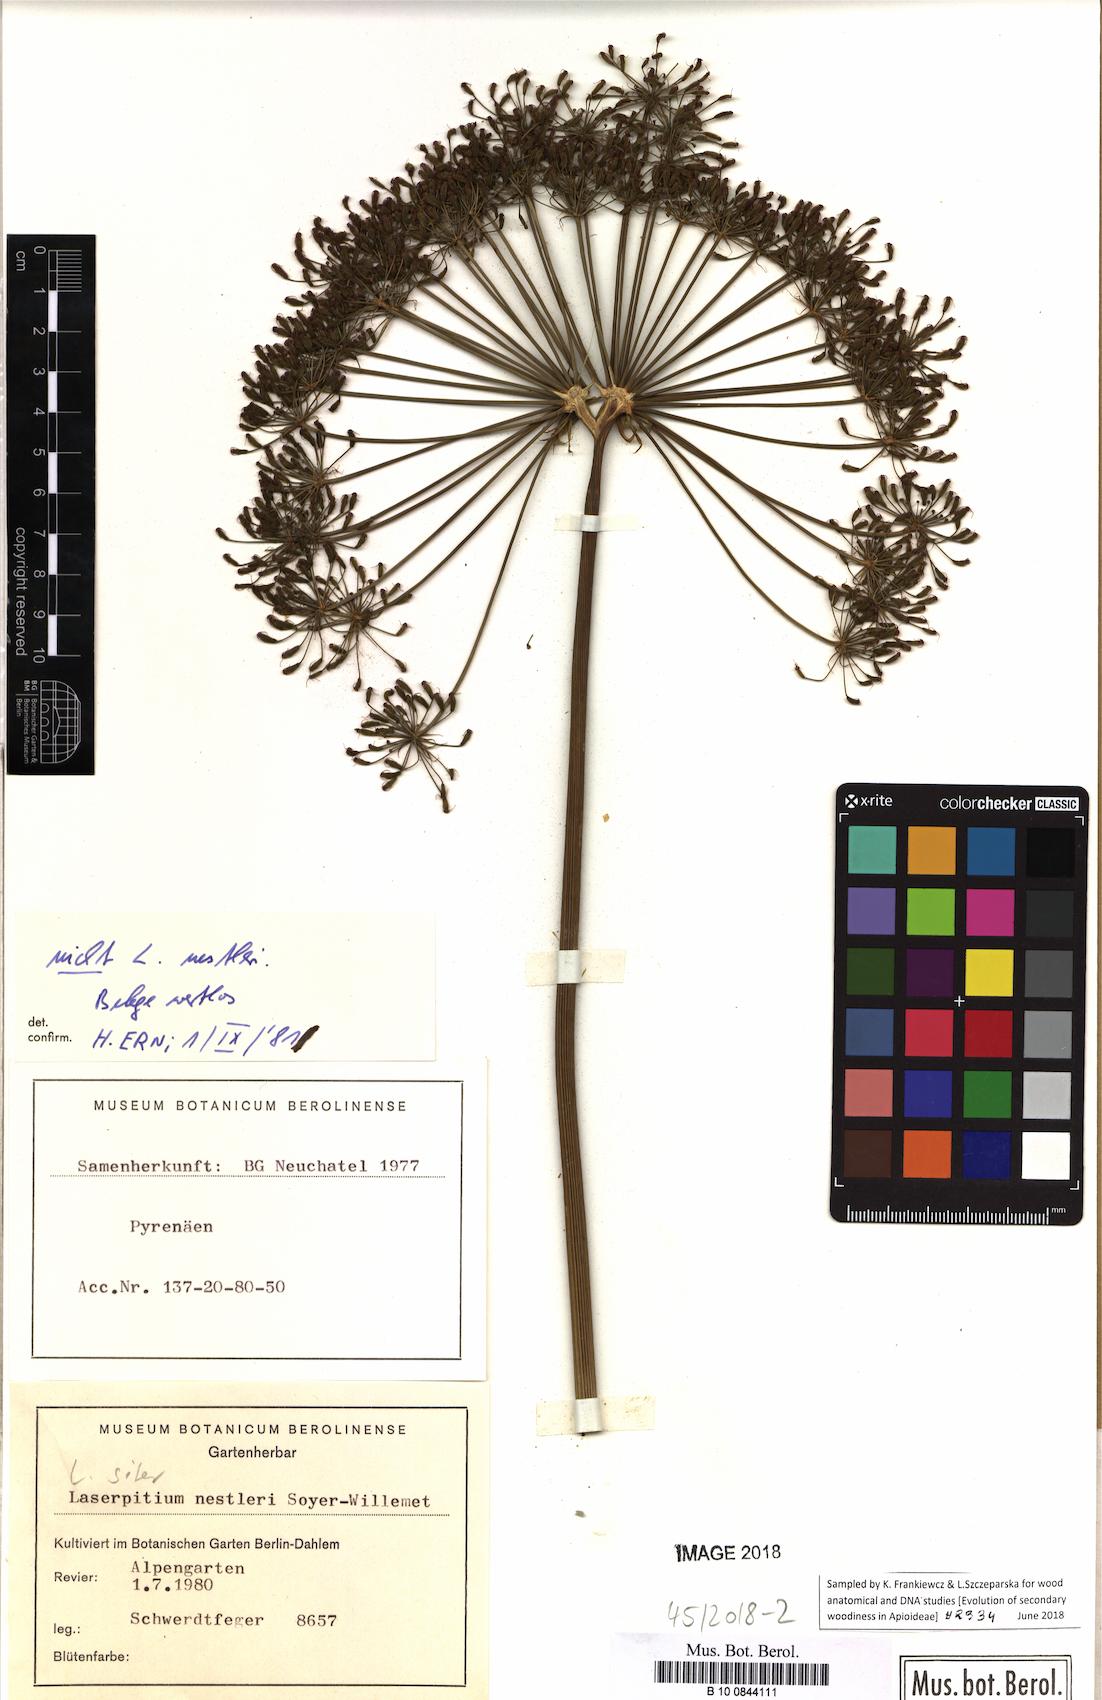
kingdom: Plantae
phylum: Tracheophyta
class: Magnoliopsida
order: Apiales
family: Apiaceae
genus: Siler
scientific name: Siler montanum
